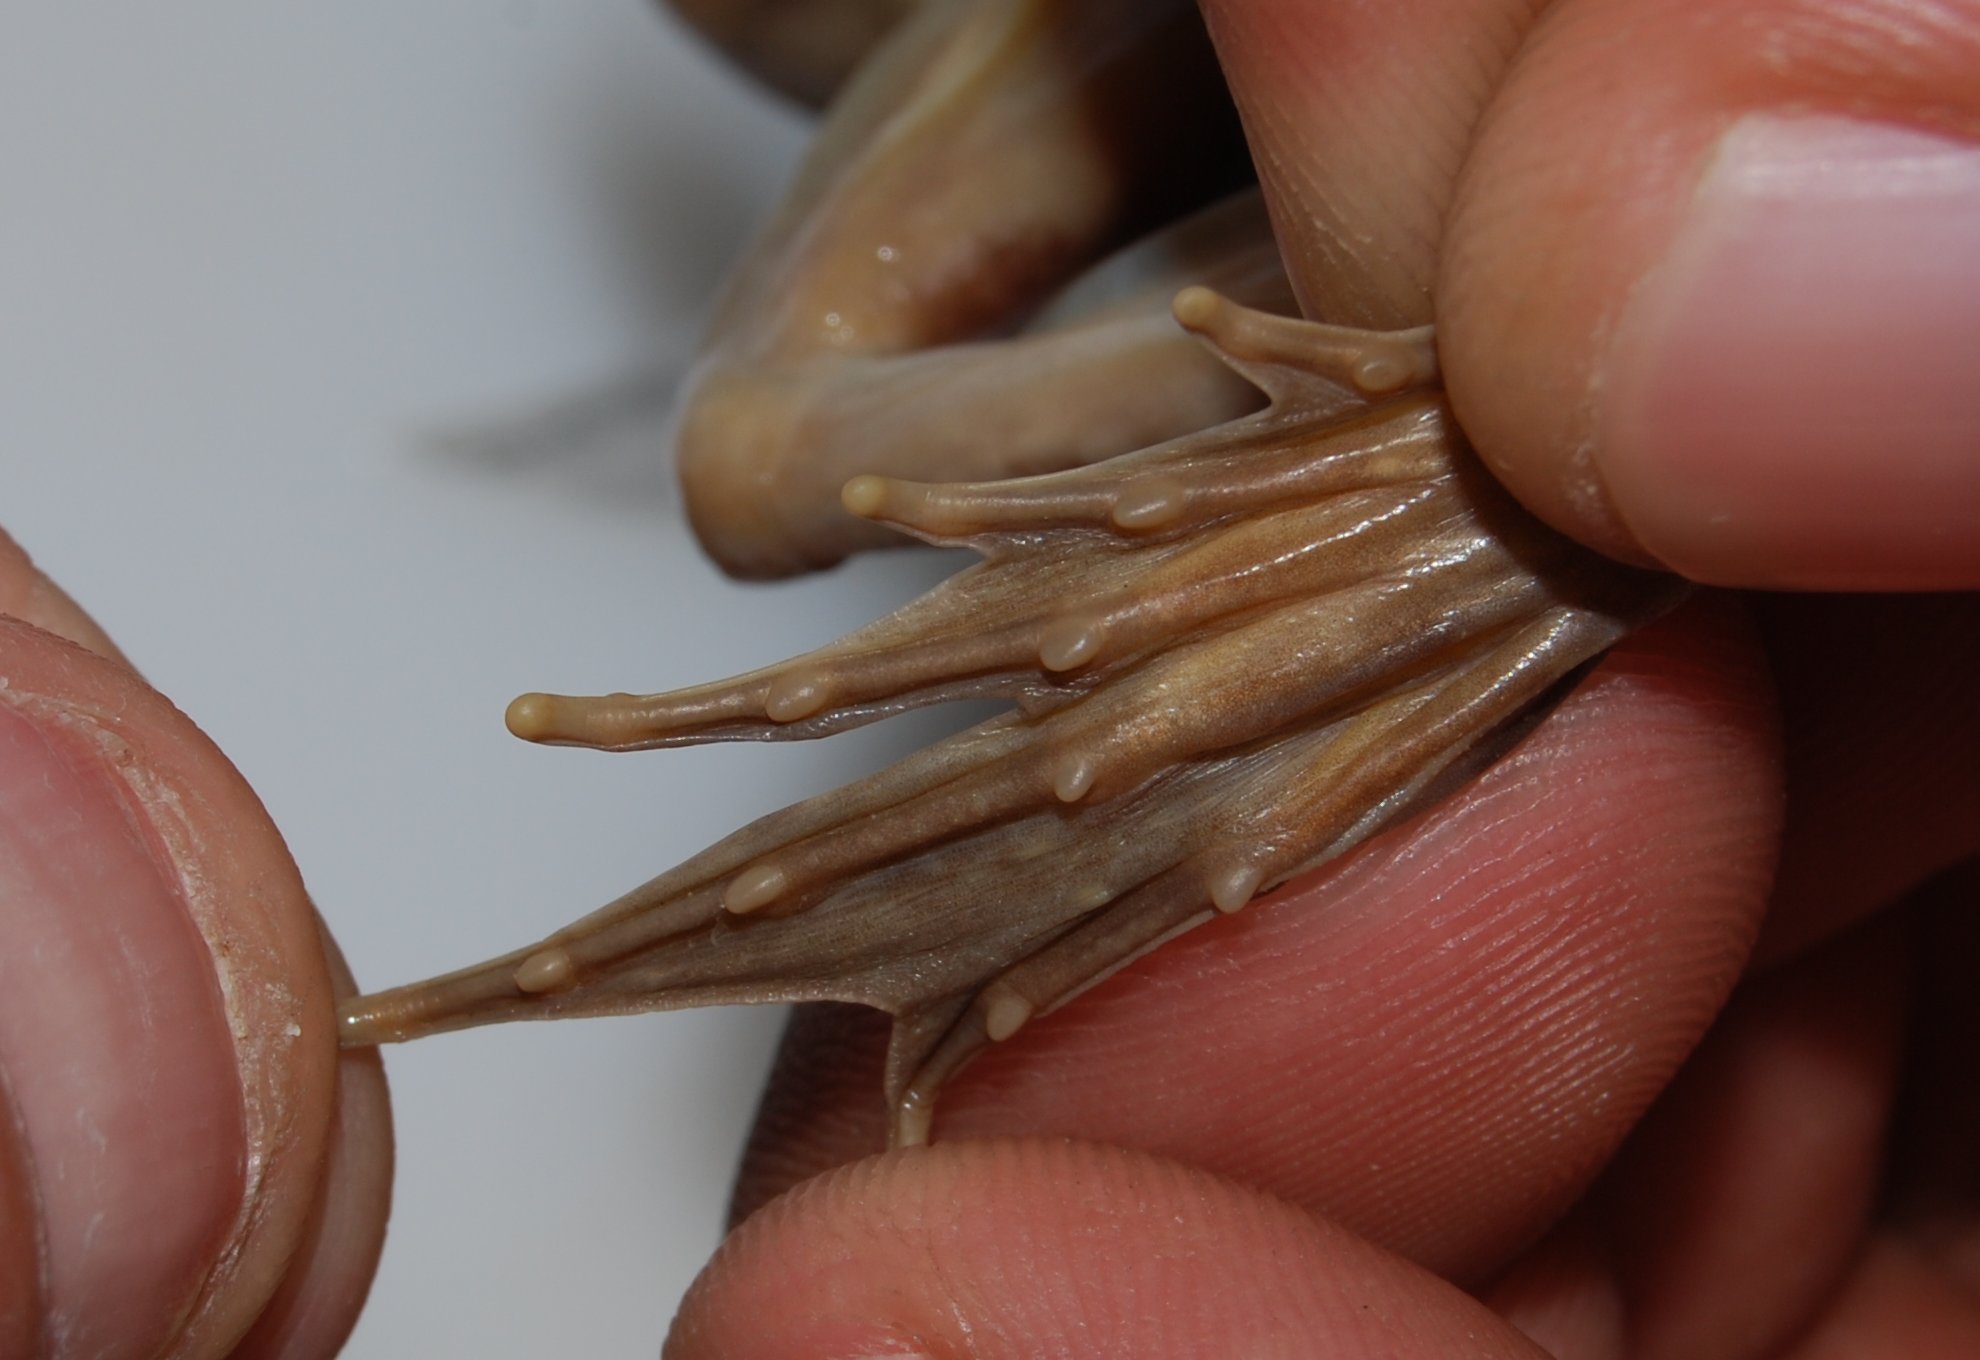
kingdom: Animalia
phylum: Chordata
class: Amphibia
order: Anura
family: Pyxicephalidae
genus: Amietia
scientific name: Amietia fuscigula
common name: Cape rana
